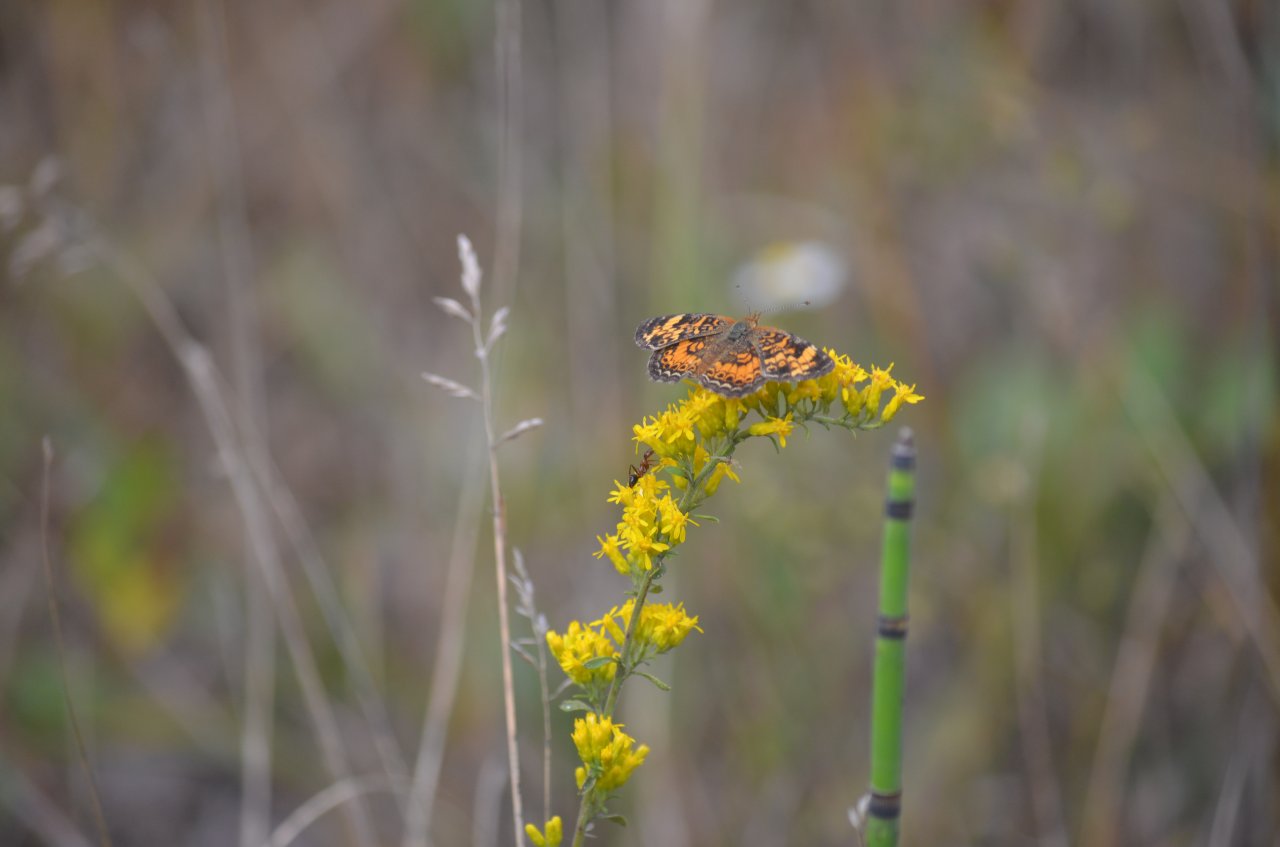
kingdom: Animalia
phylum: Arthropoda
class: Insecta
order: Lepidoptera
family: Nymphalidae
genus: Phyciodes
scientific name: Phyciodes tharos
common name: Northern Crescent
